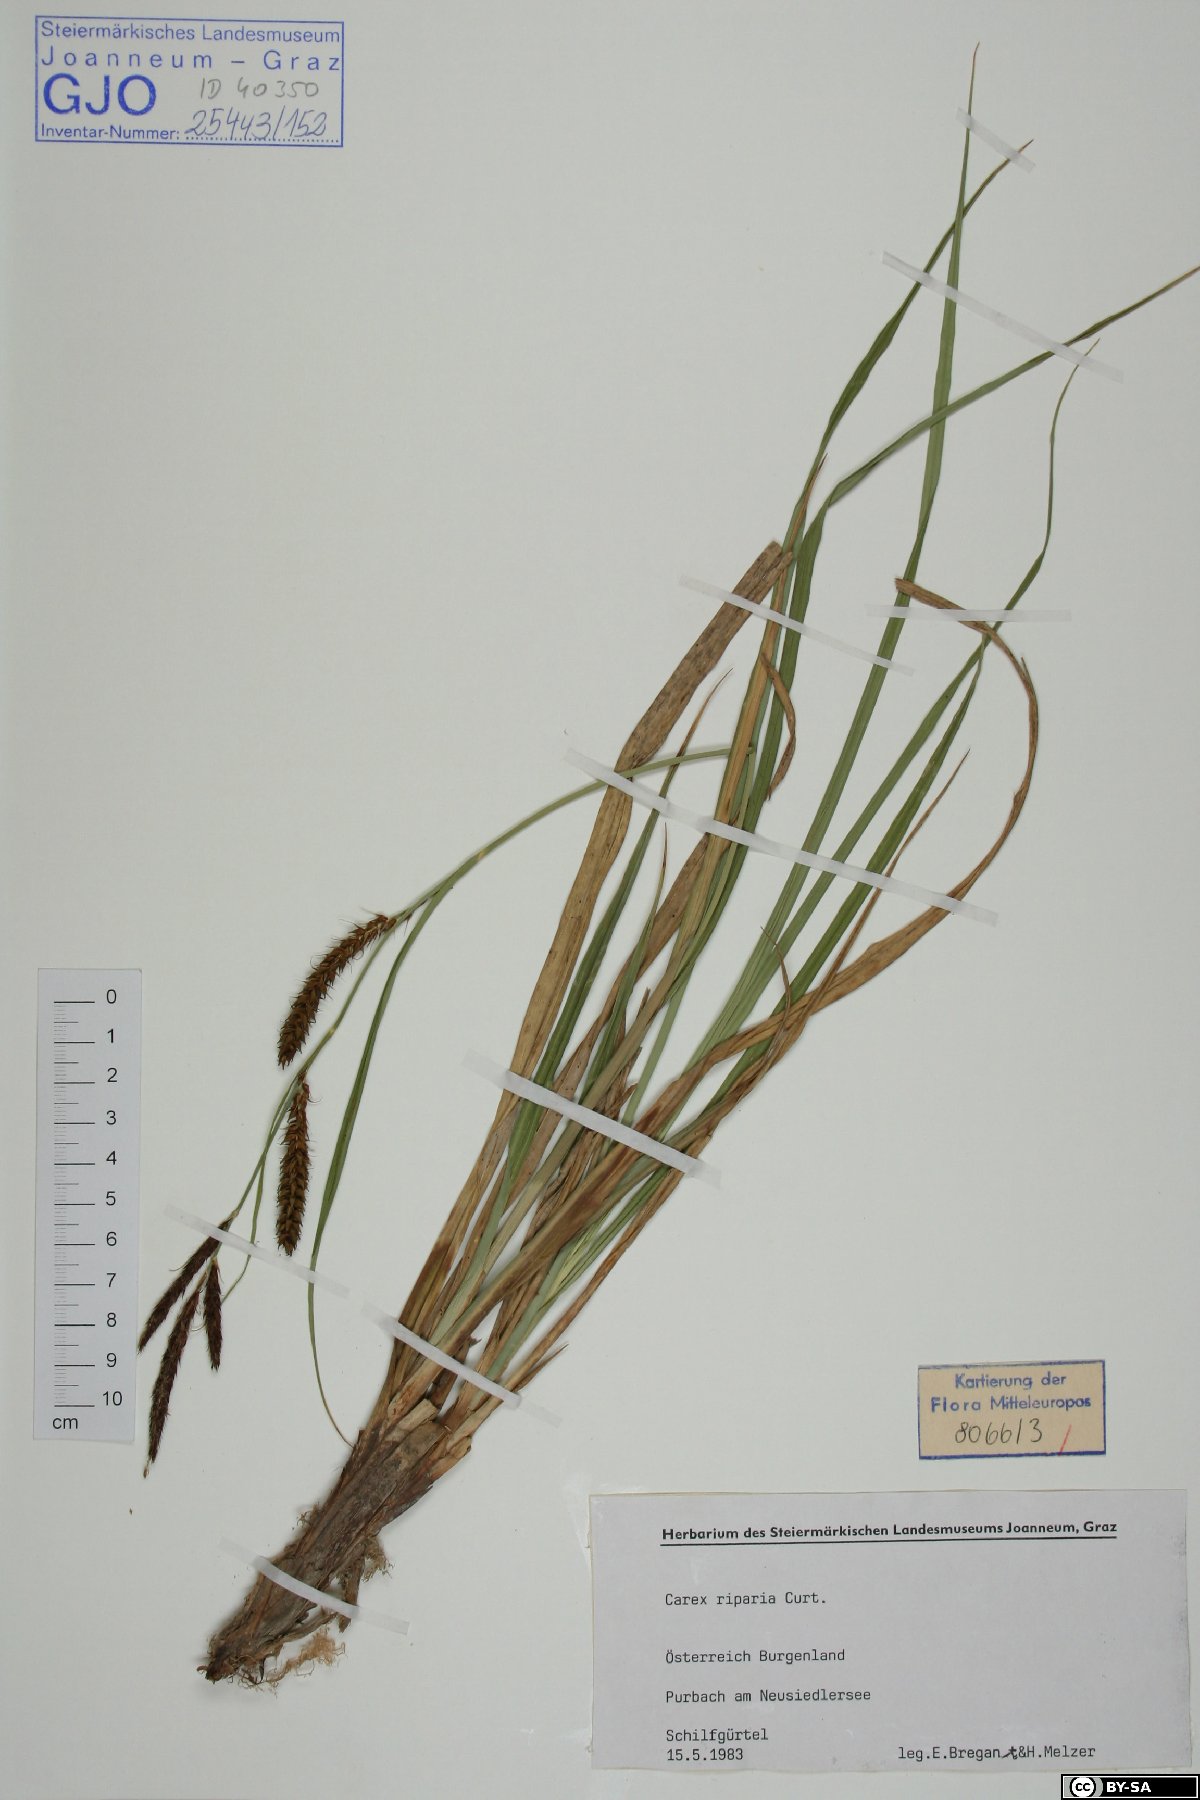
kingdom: Plantae
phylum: Tracheophyta
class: Liliopsida
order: Poales
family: Cyperaceae
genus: Carex
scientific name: Carex riparia
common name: Greater pond-sedge
